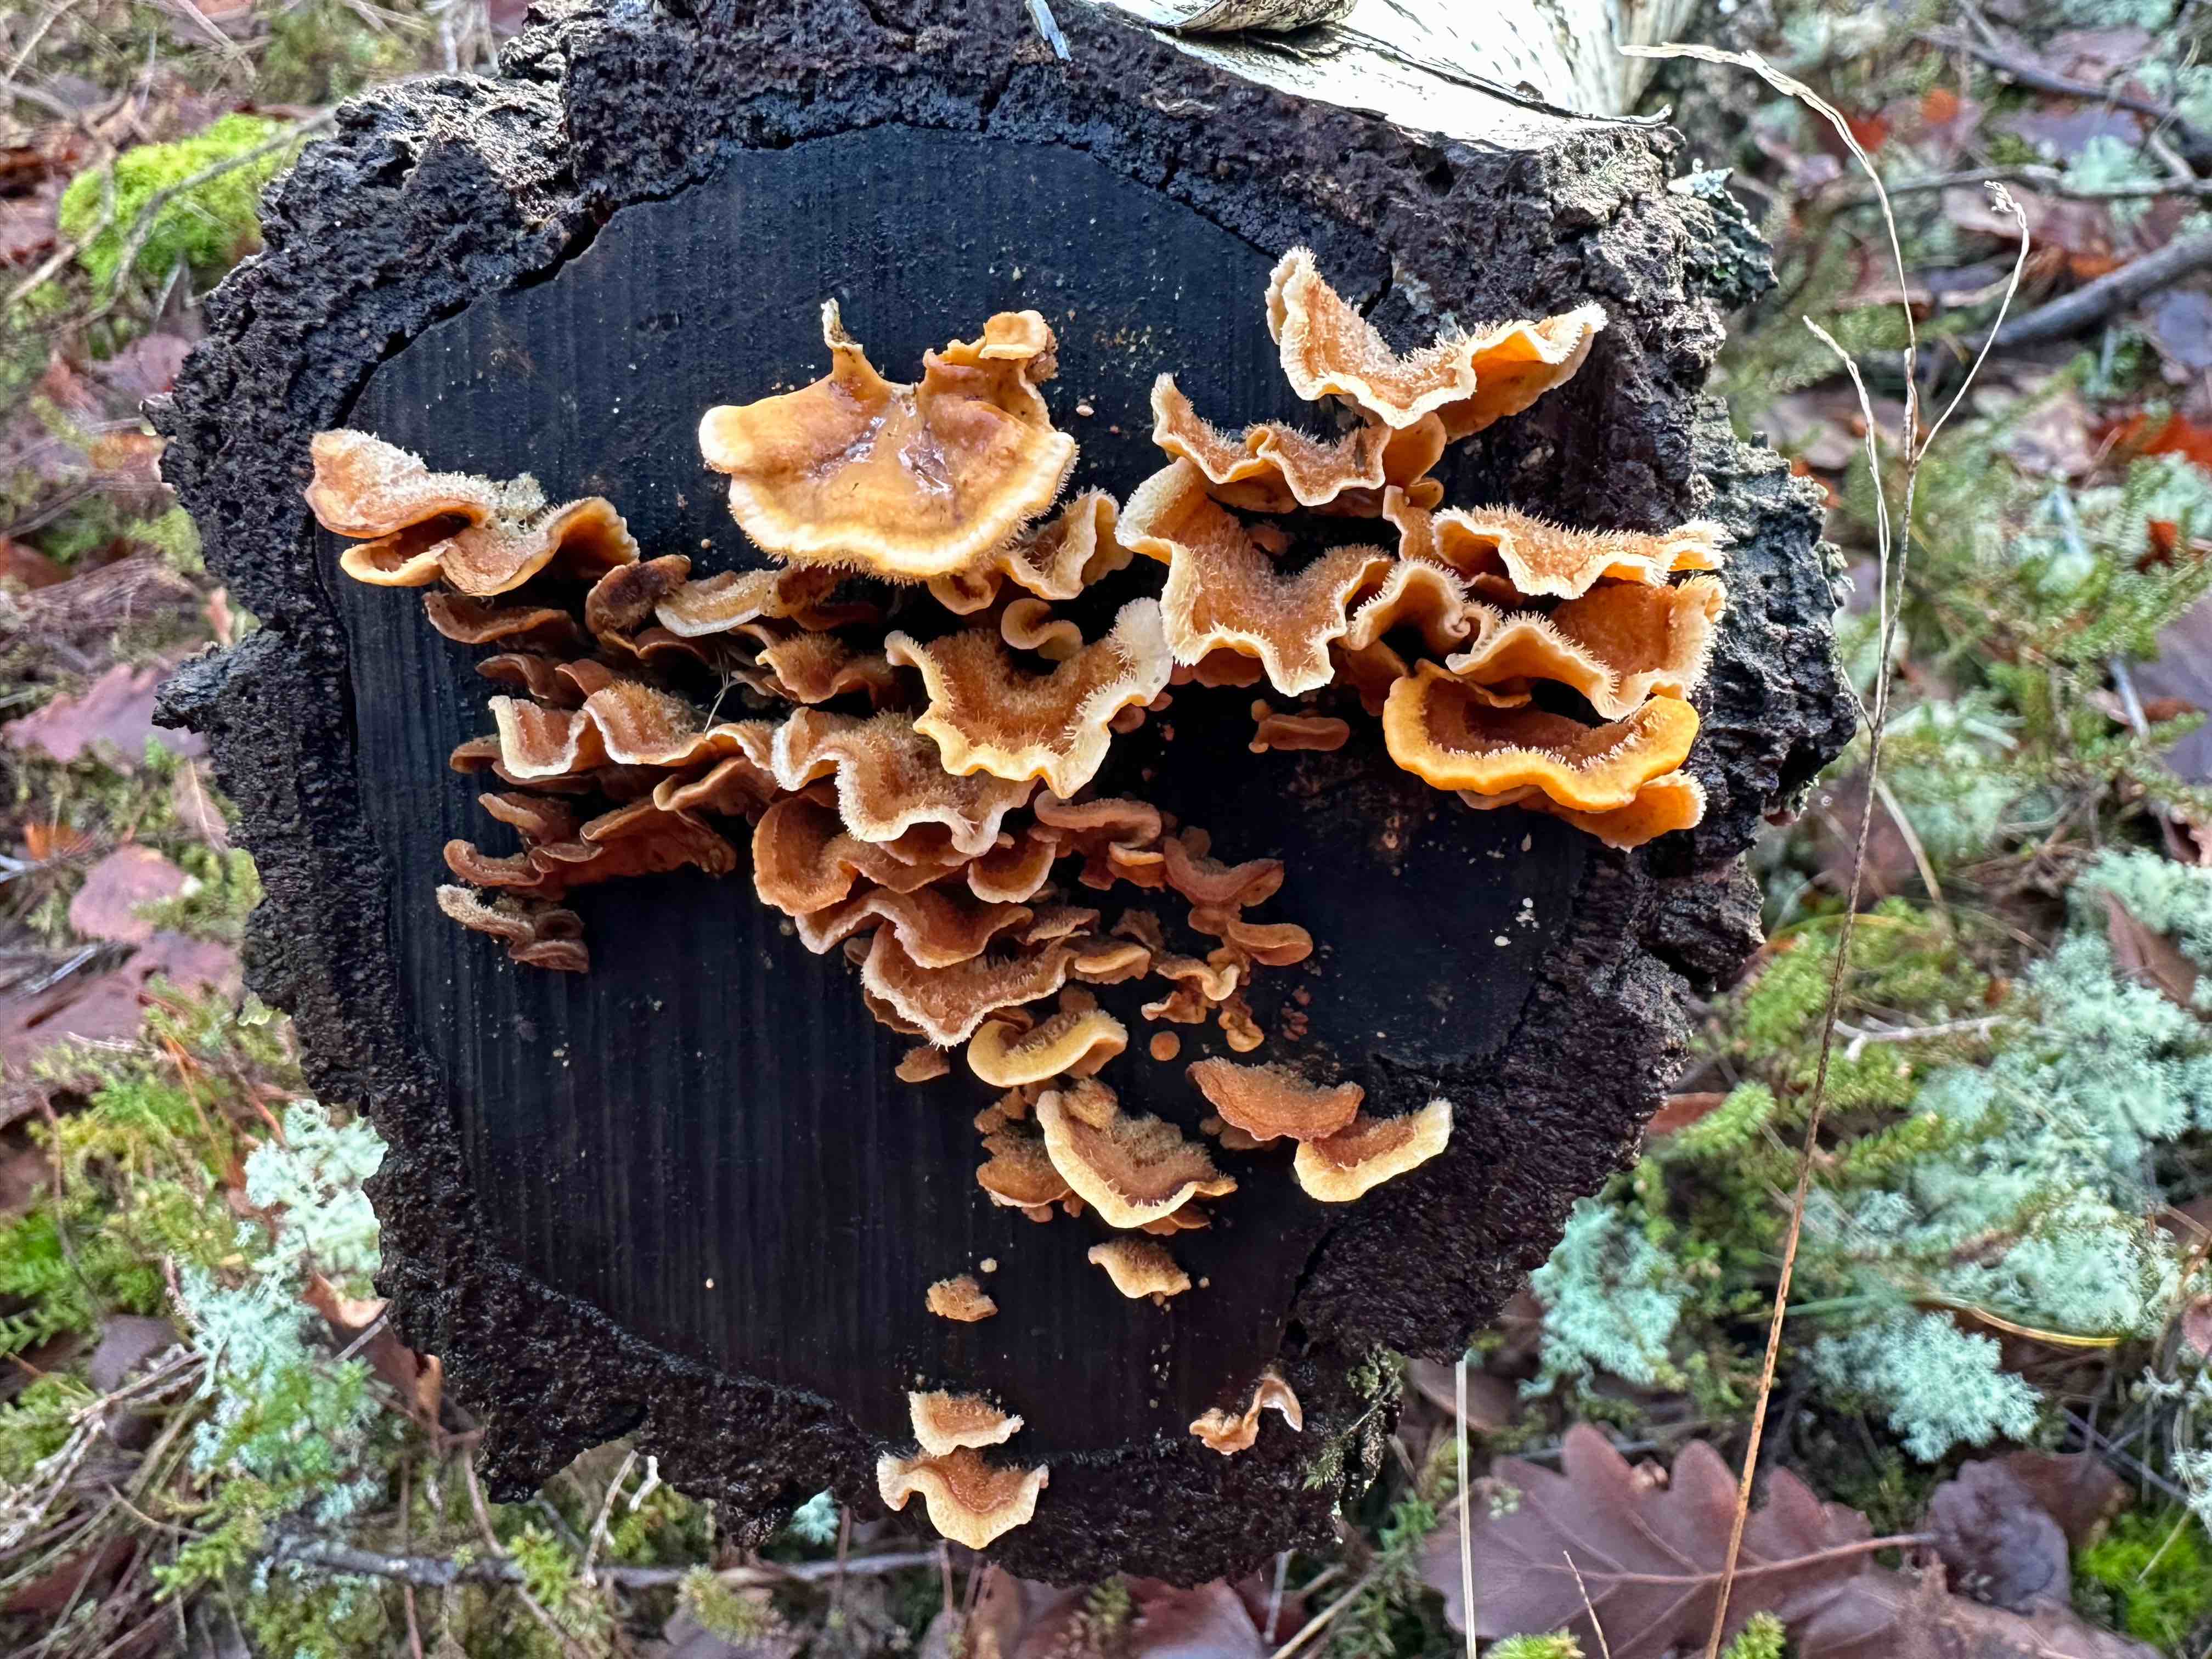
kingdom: Fungi
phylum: Basidiomycota
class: Agaricomycetes
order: Russulales
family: Stereaceae
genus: Stereum
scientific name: Stereum hirsutum
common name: håret lædersvamp
